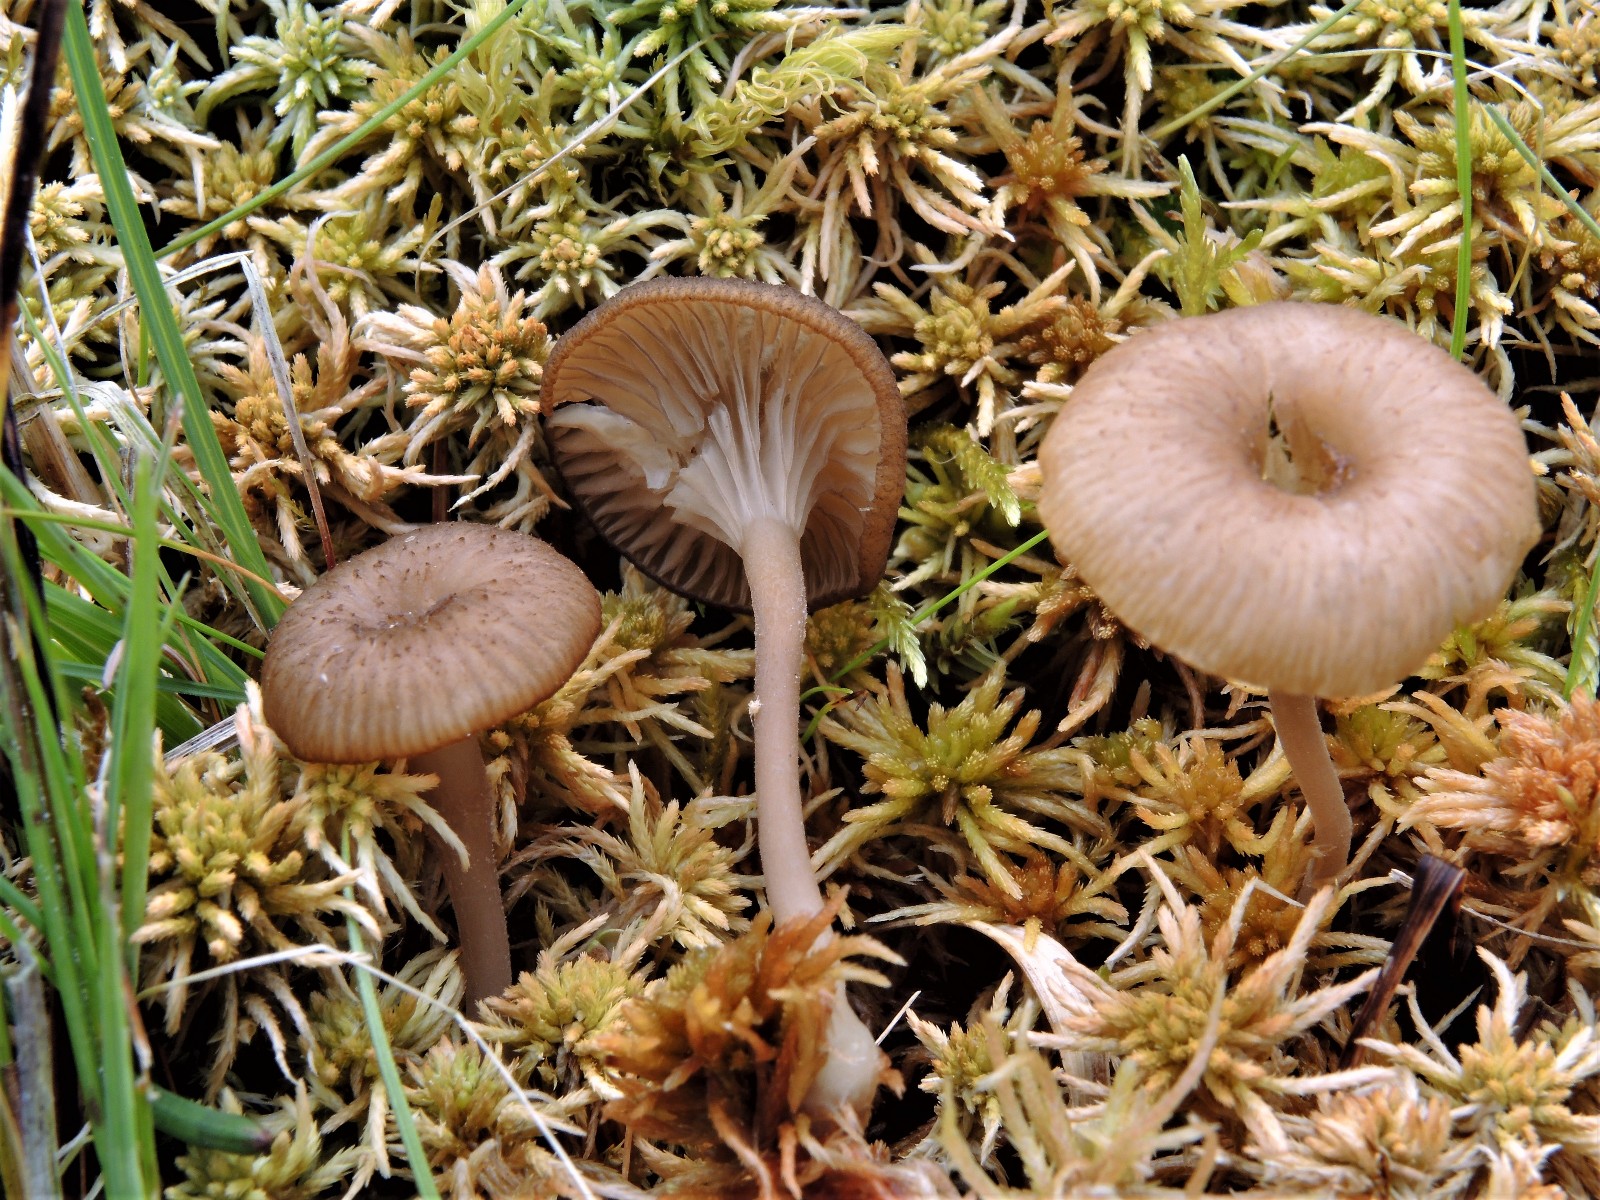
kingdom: Fungi
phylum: Basidiomycota
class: Agaricomycetes
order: Agaricales
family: Hygrophoraceae
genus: Arrhenia
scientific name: Arrhenia gerardiana
